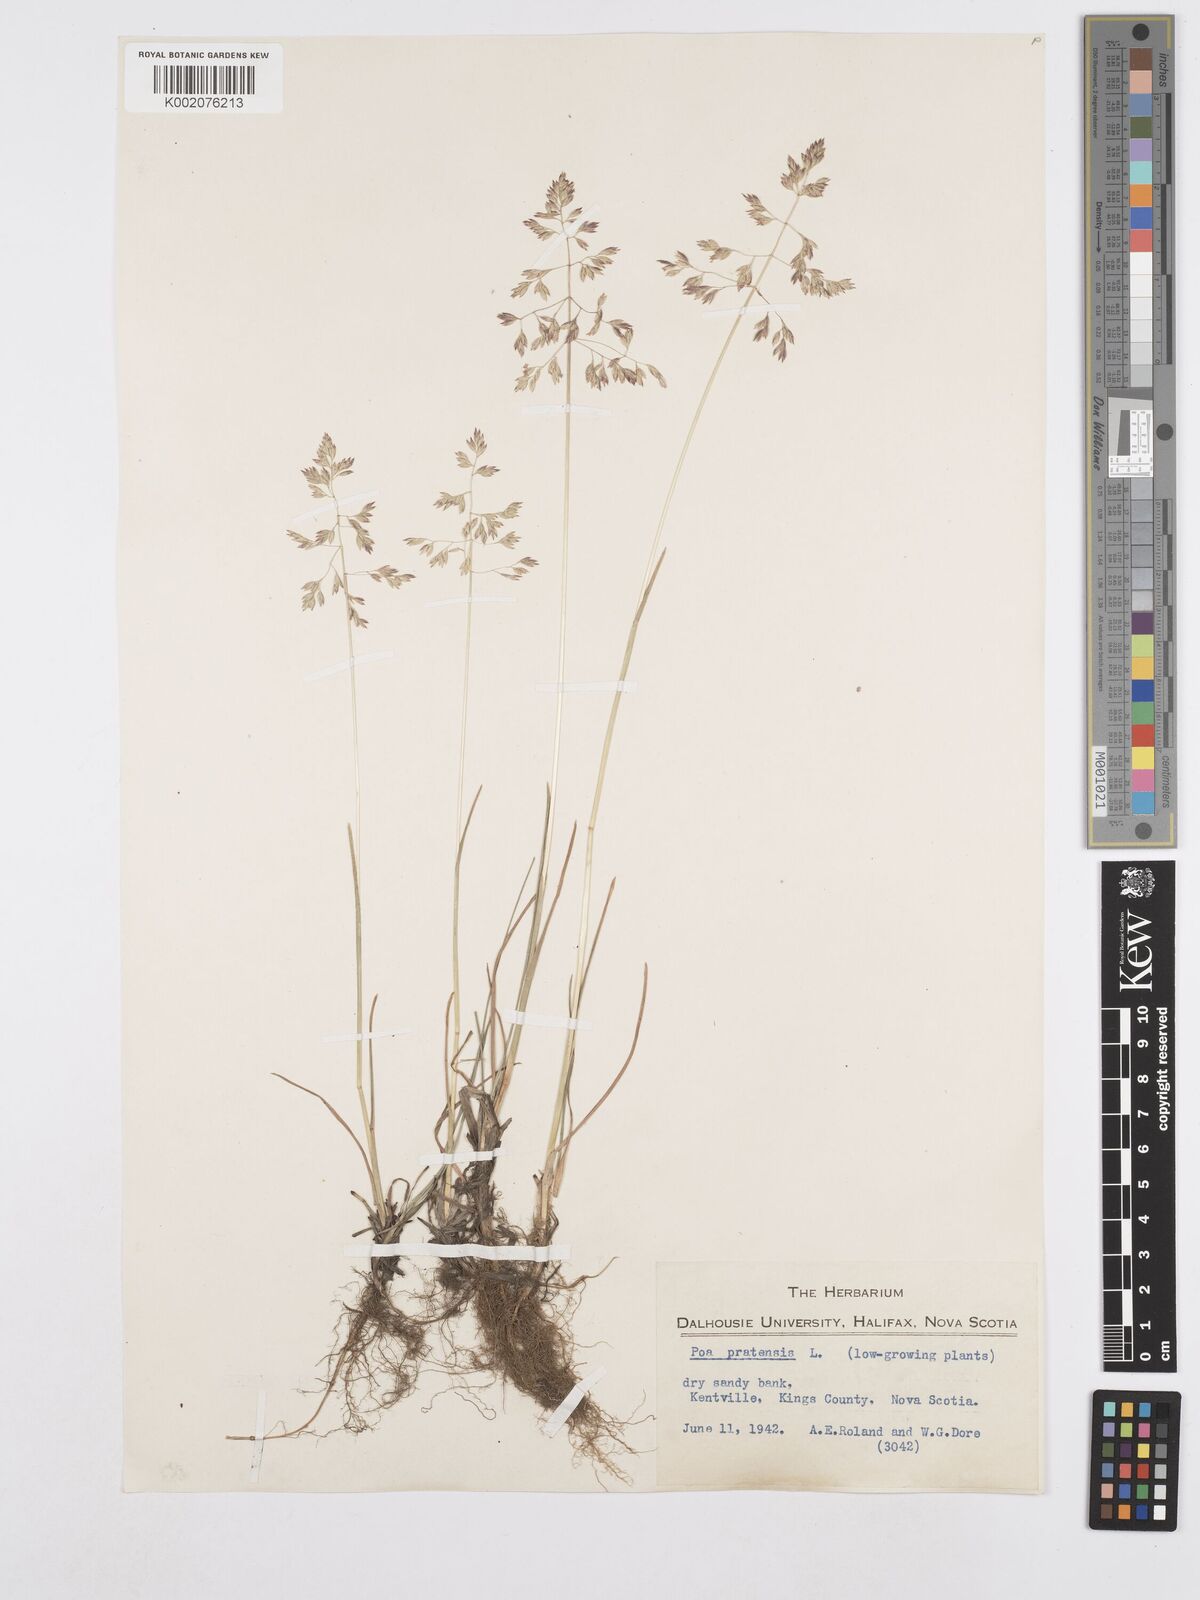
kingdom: Plantae
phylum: Tracheophyta
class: Liliopsida
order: Poales
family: Poaceae
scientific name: Poaceae
